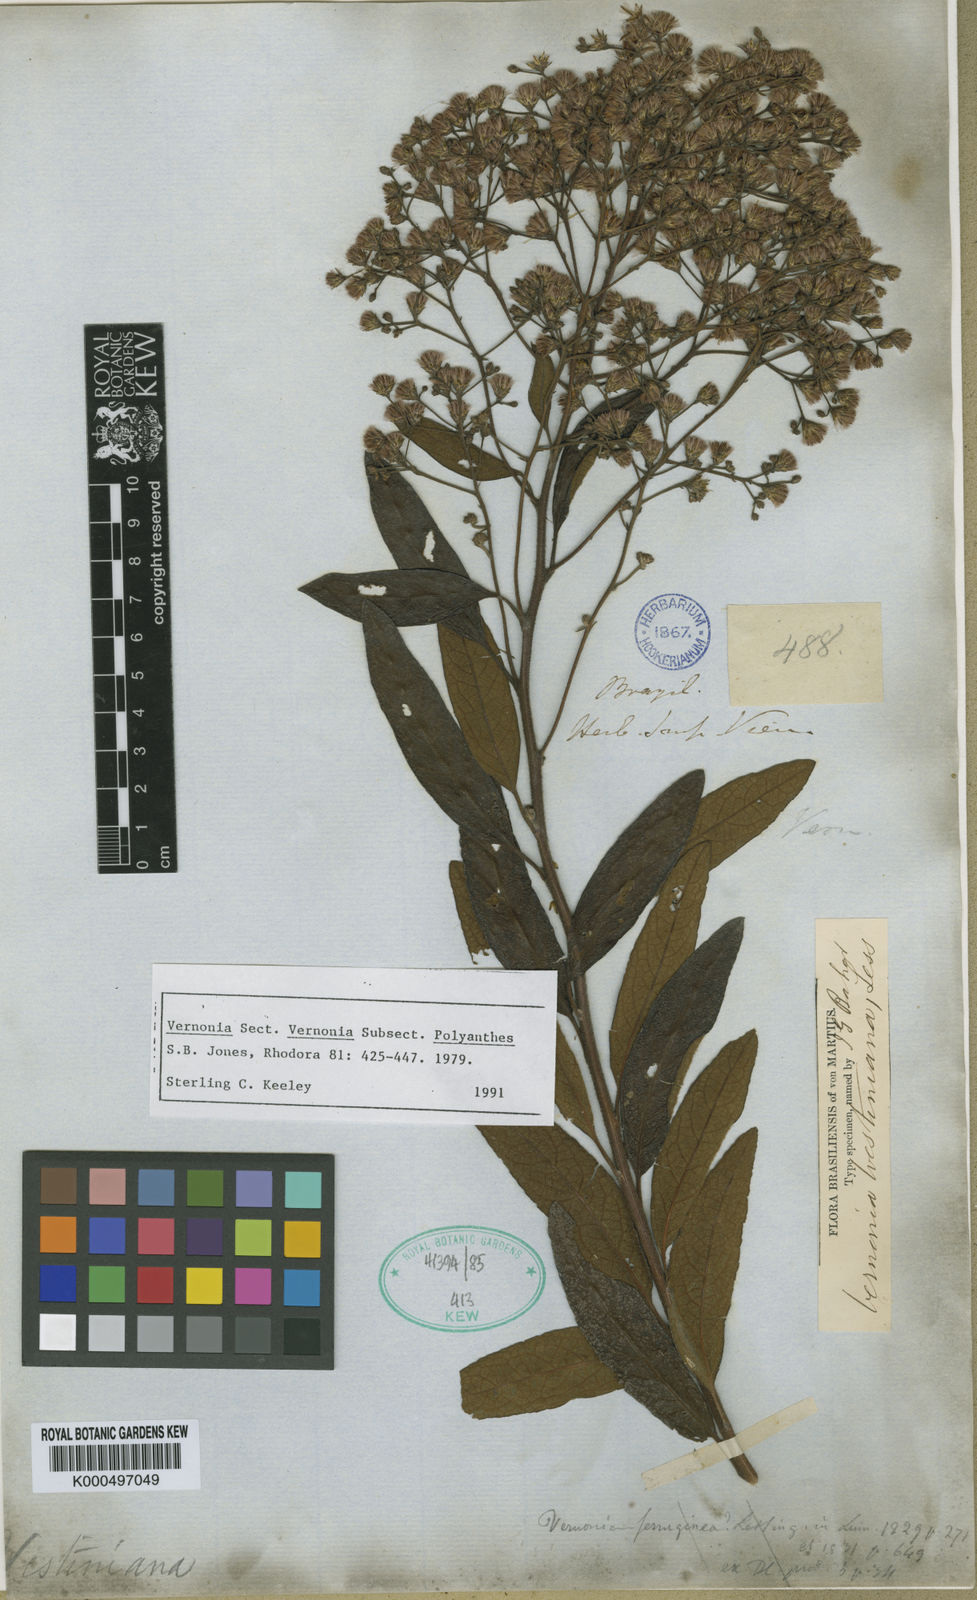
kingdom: Plantae
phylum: Tracheophyta
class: Magnoliopsida
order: Asterales
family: Asteraceae
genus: Vernonanthura
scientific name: Vernonanthura westiniana
